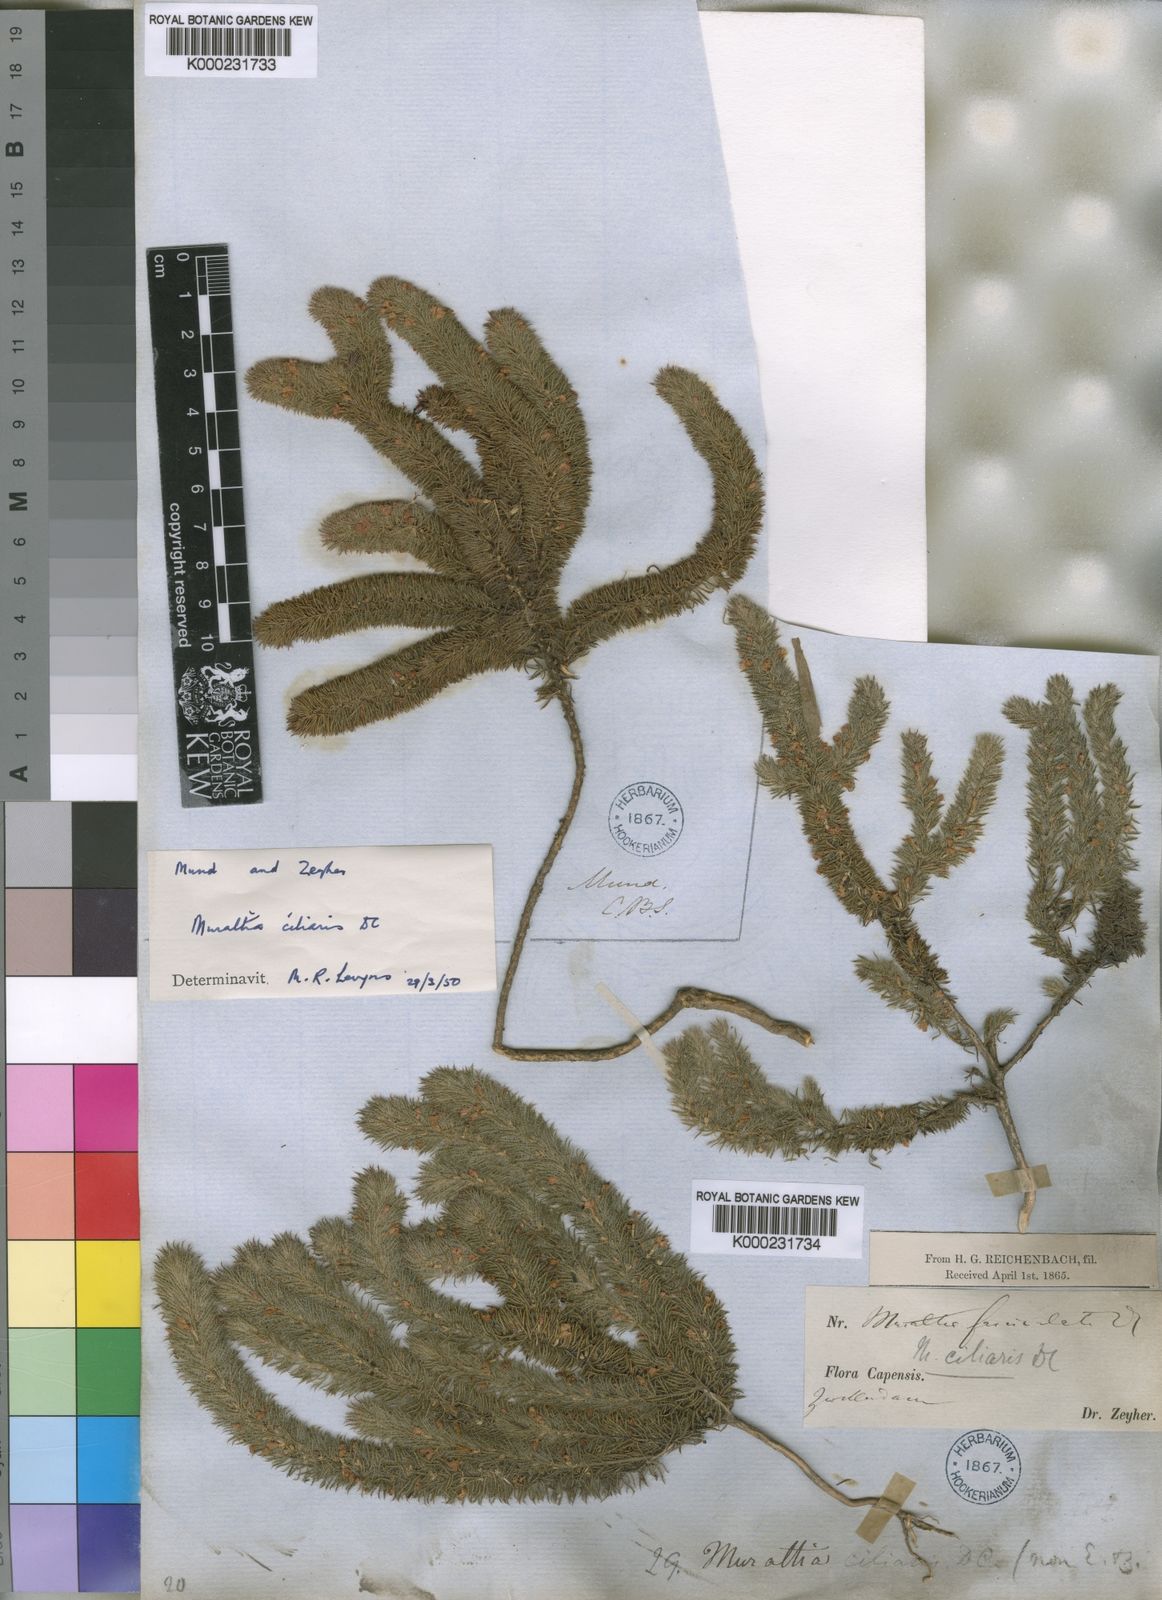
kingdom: Plantae
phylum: Tracheophyta
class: Magnoliopsida
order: Fabales
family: Polygalaceae
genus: Muraltia
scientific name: Muraltia ciliaris
